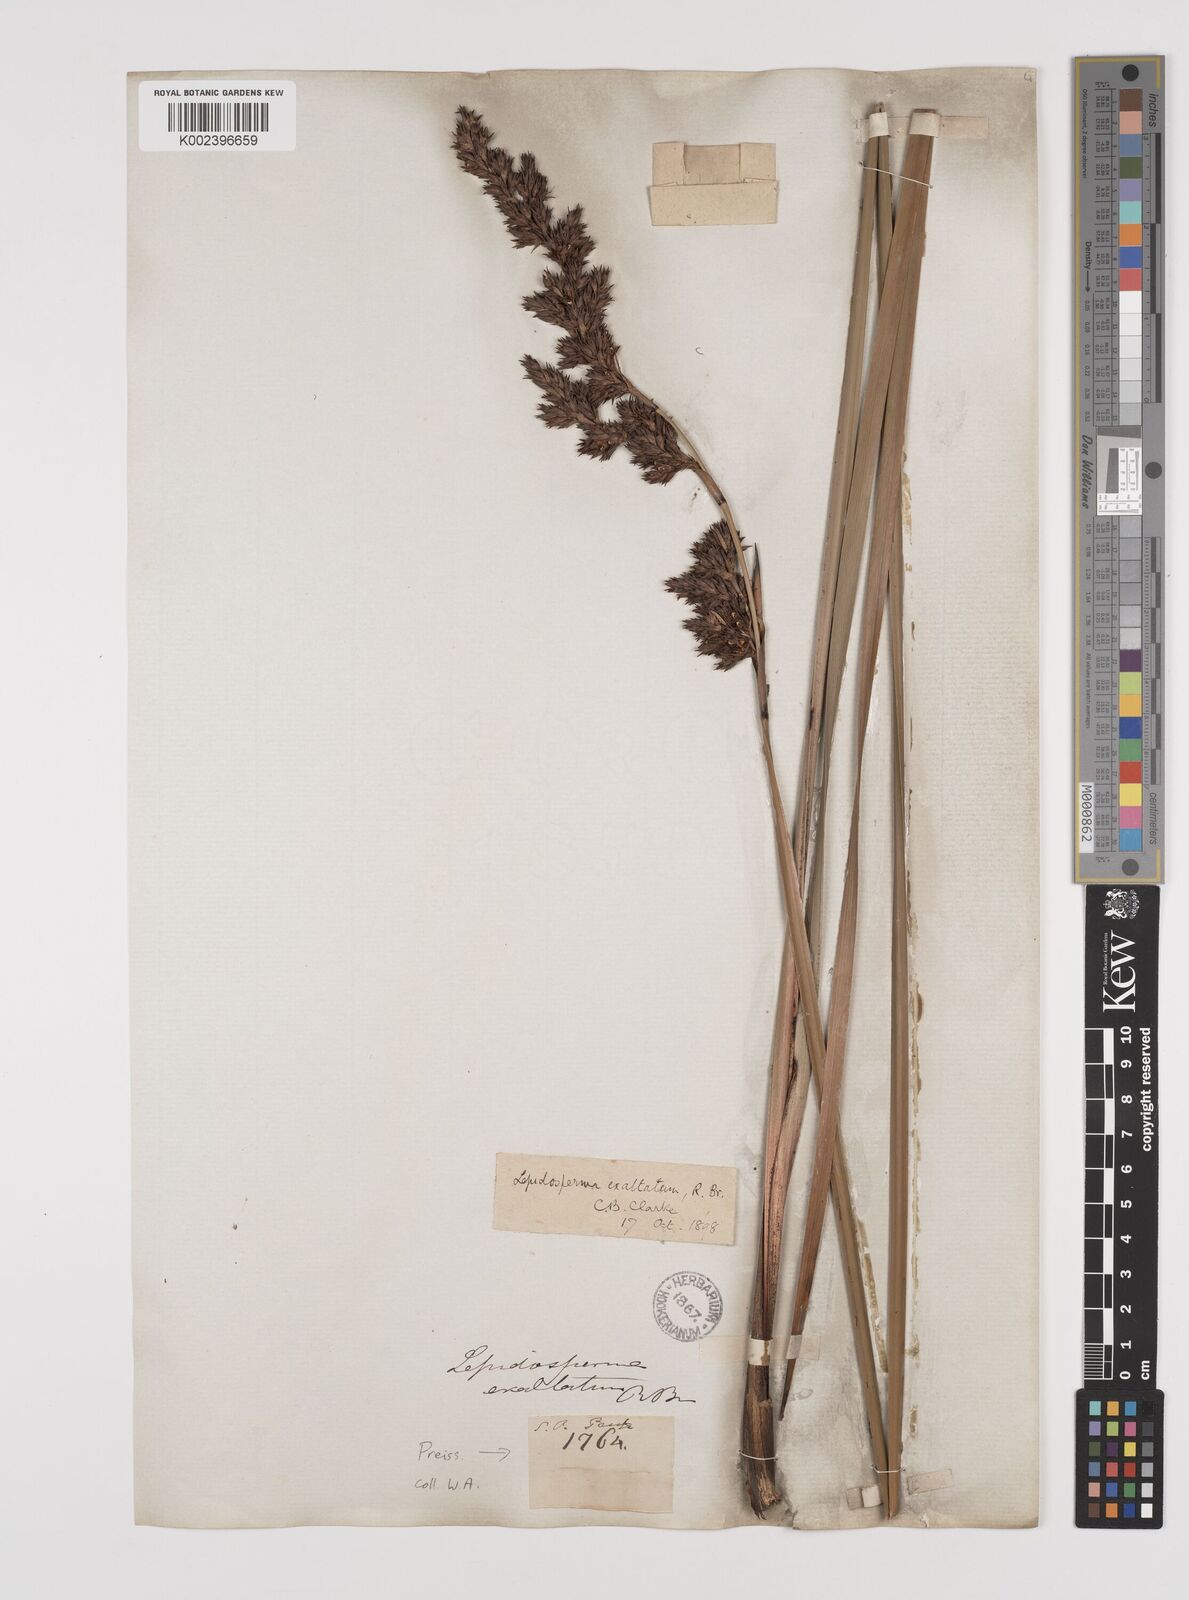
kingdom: Plantae
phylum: Tracheophyta
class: Liliopsida
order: Poales
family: Cyperaceae
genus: Lepidosperma
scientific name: Lepidosperma longitudinale
